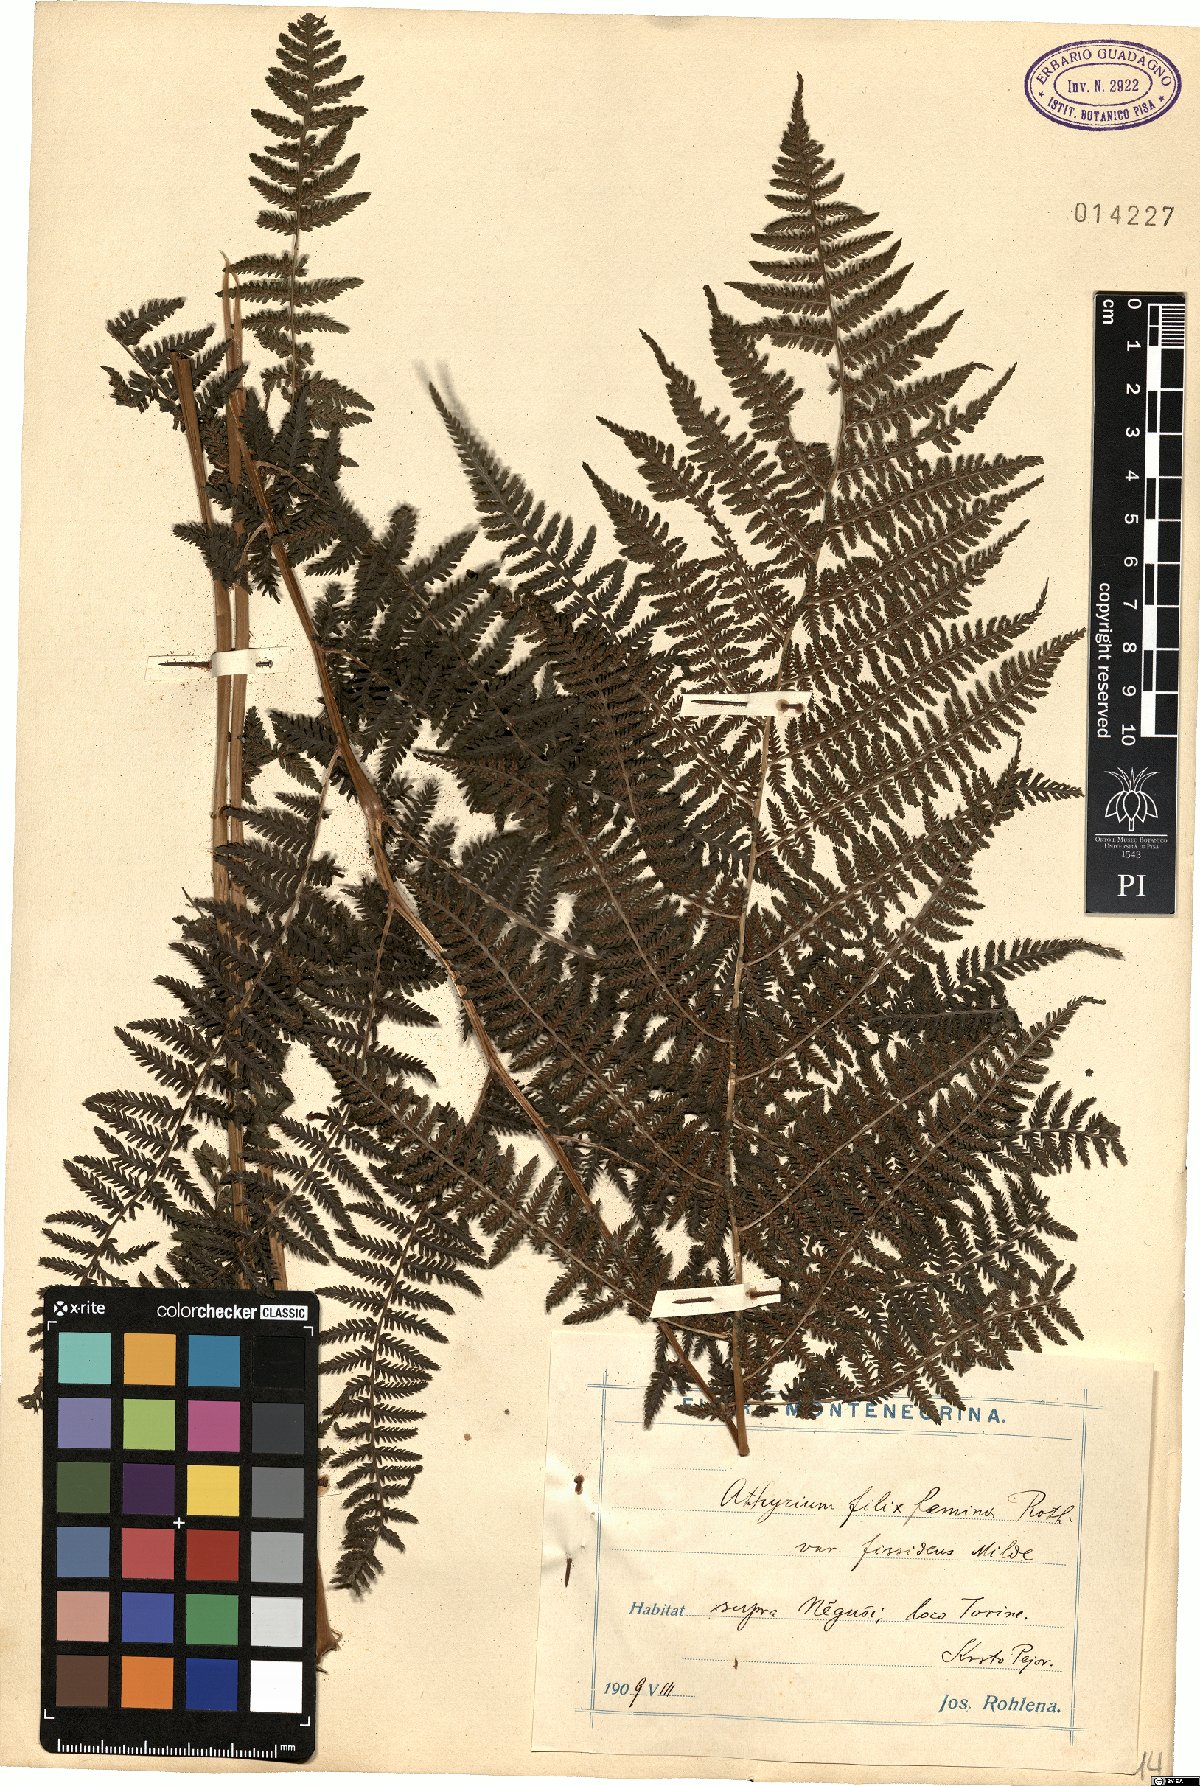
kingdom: Plantae
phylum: Tracheophyta
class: Polypodiopsida
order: Polypodiales
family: Athyriaceae
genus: Athyrium
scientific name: Athyrium devolii
